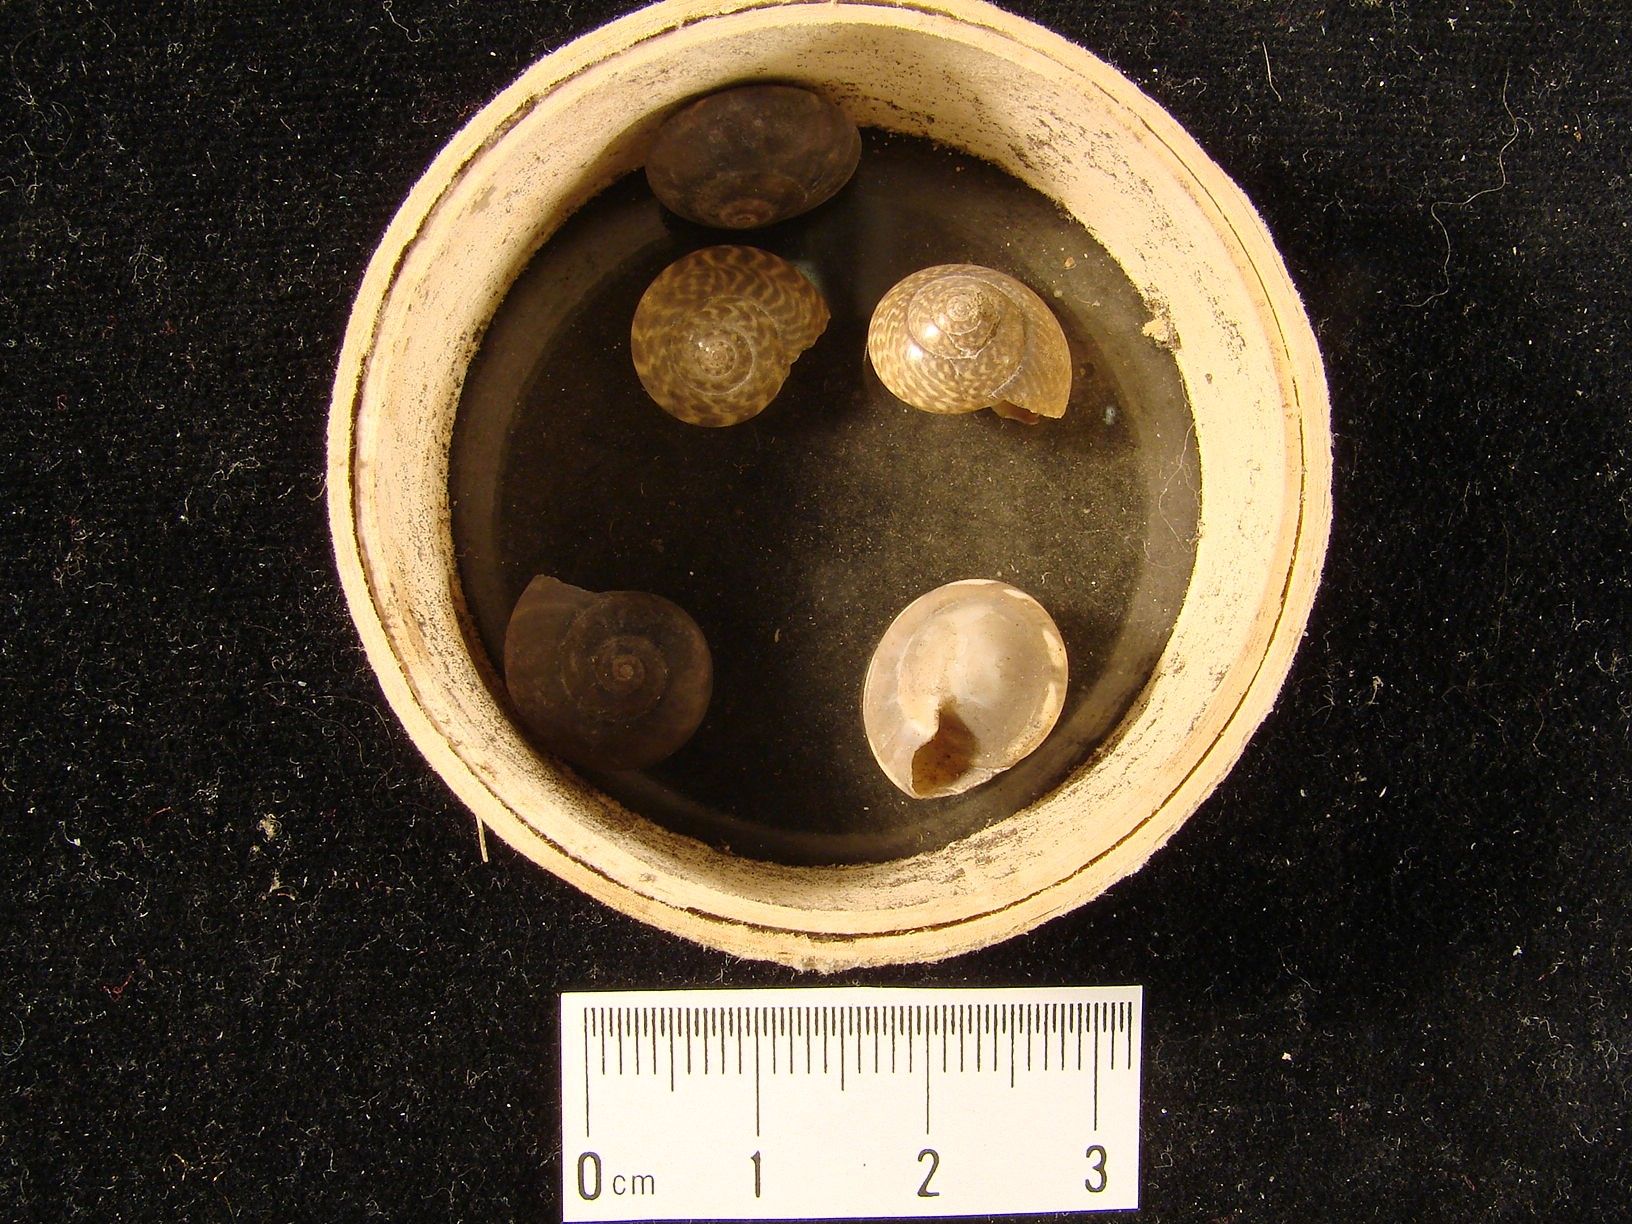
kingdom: Animalia
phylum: Mollusca
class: Gastropoda
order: Trochida
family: Trochidae
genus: Umbonium
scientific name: Umbonium
